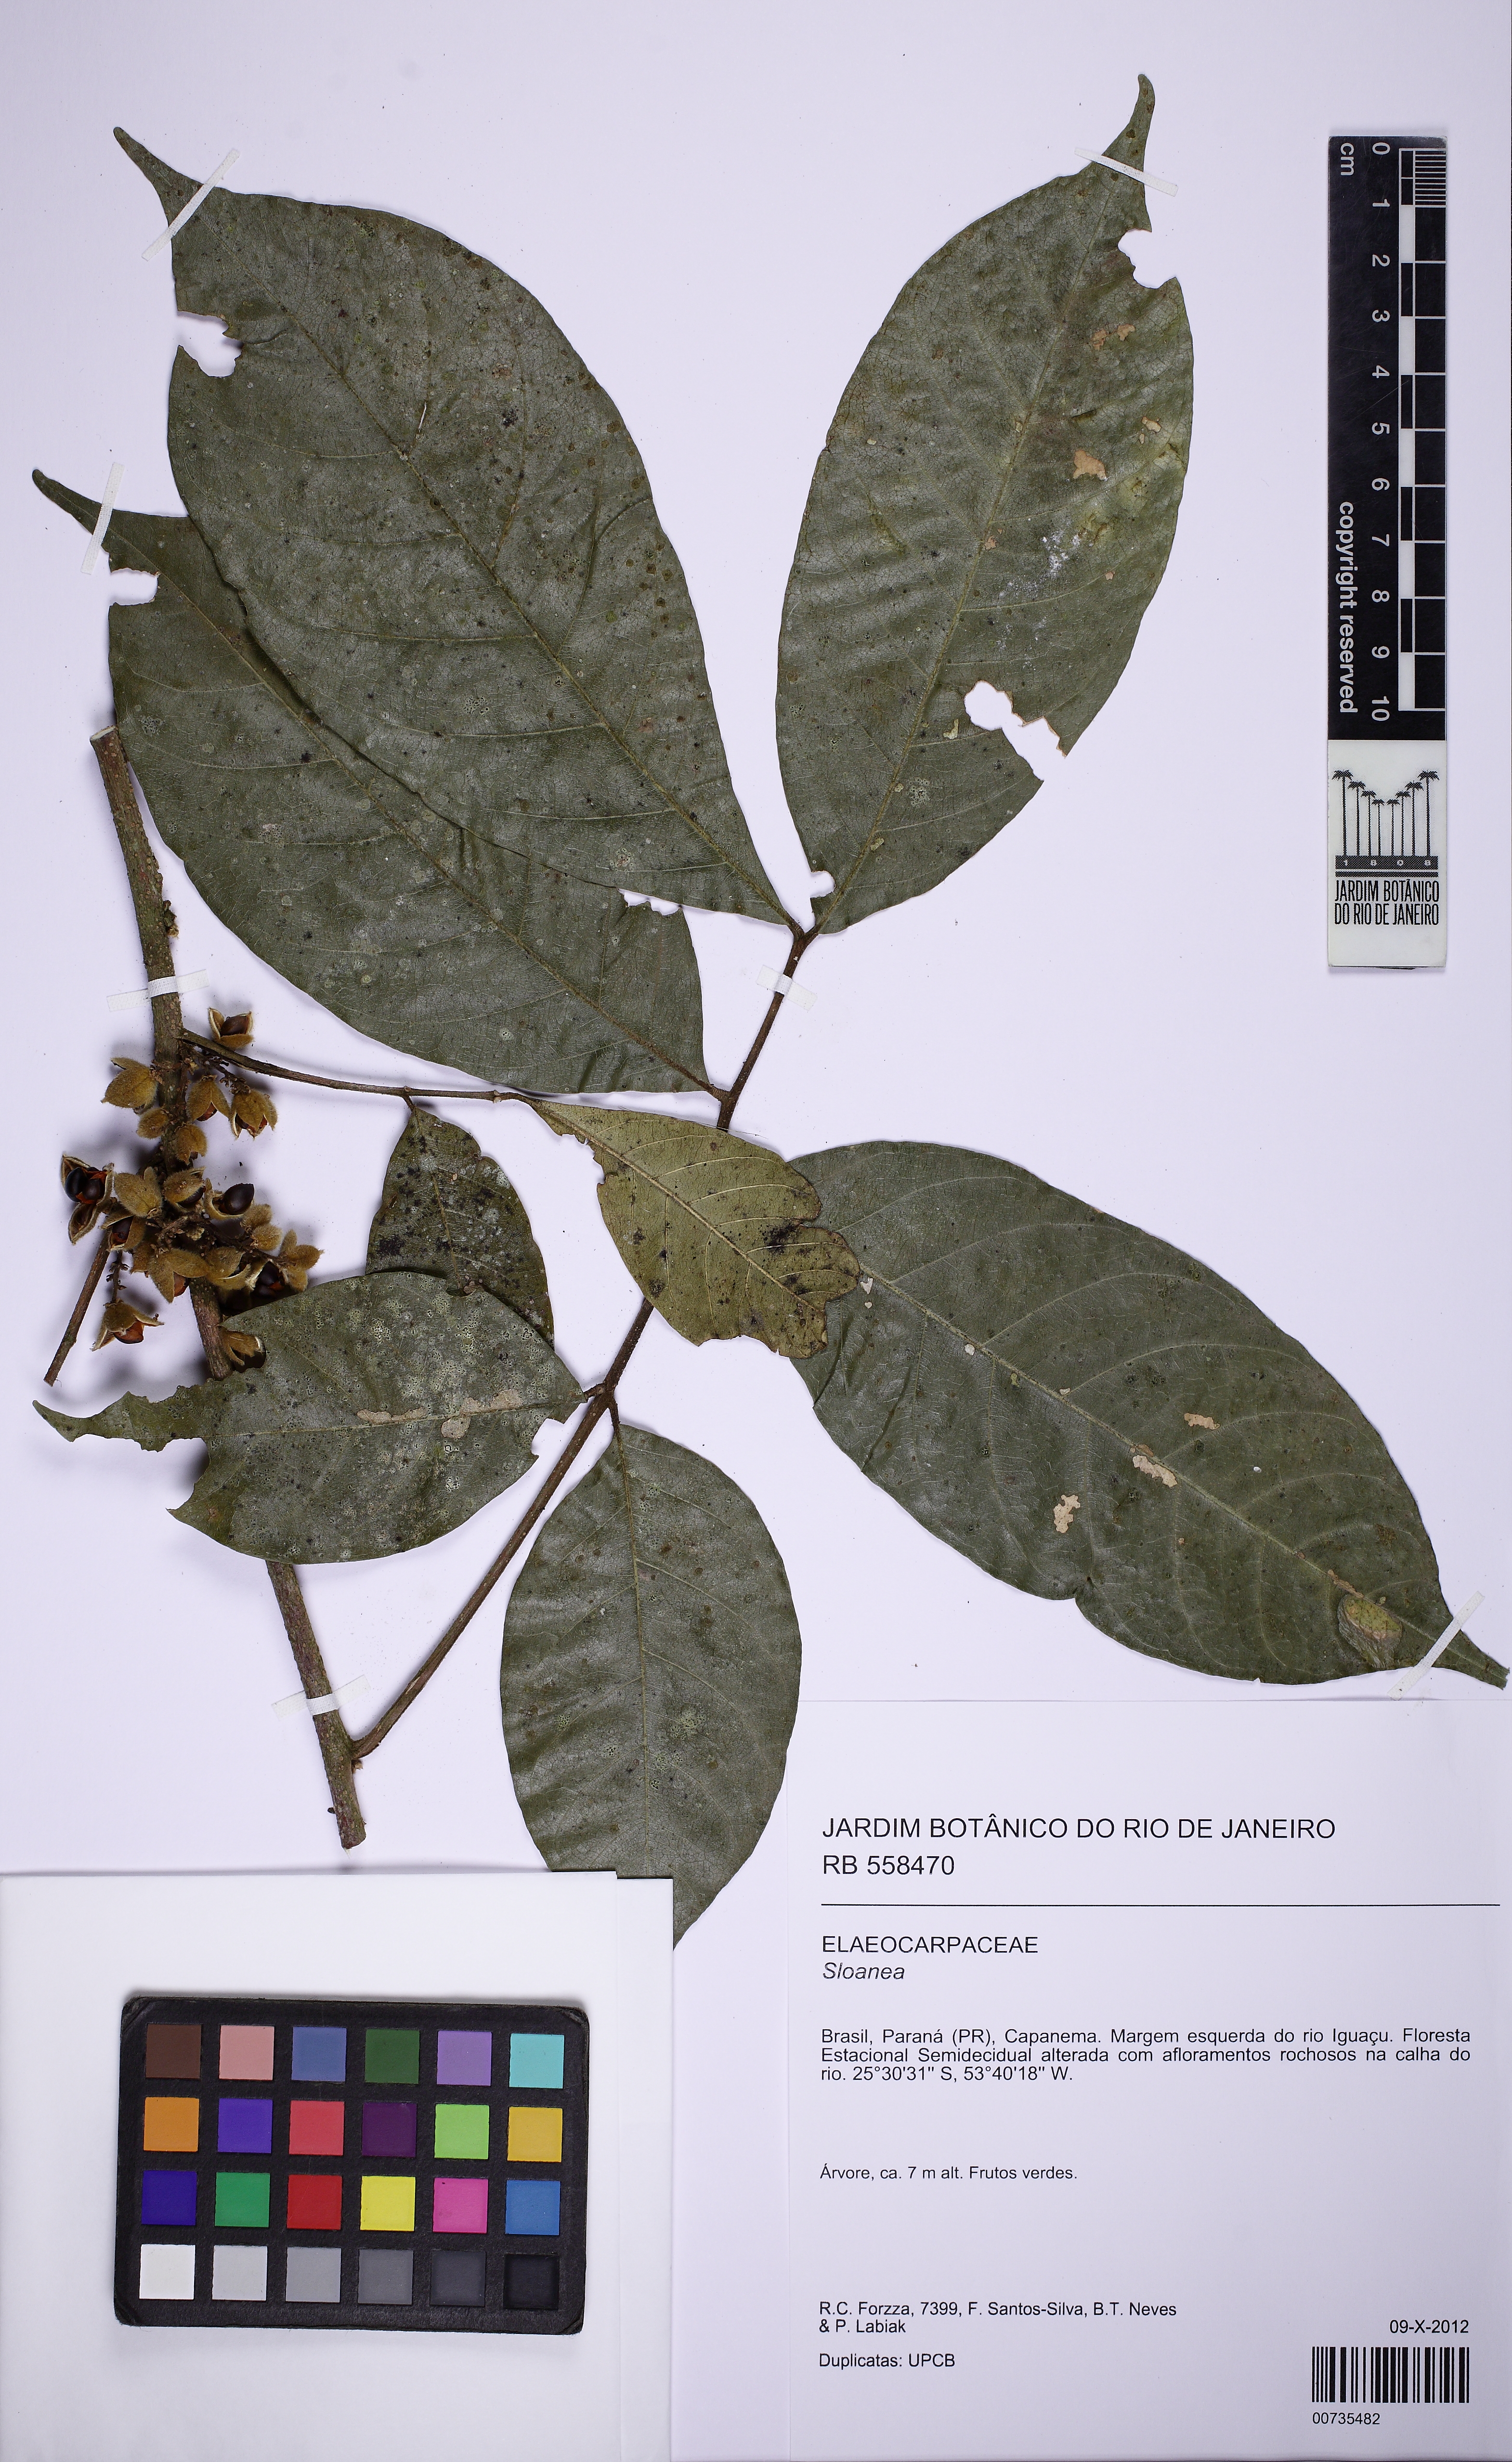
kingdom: Plantae
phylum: Tracheophyta
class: Magnoliopsida
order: Oxalidales
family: Elaeocarpaceae
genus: Sloanea
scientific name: Sloanea
